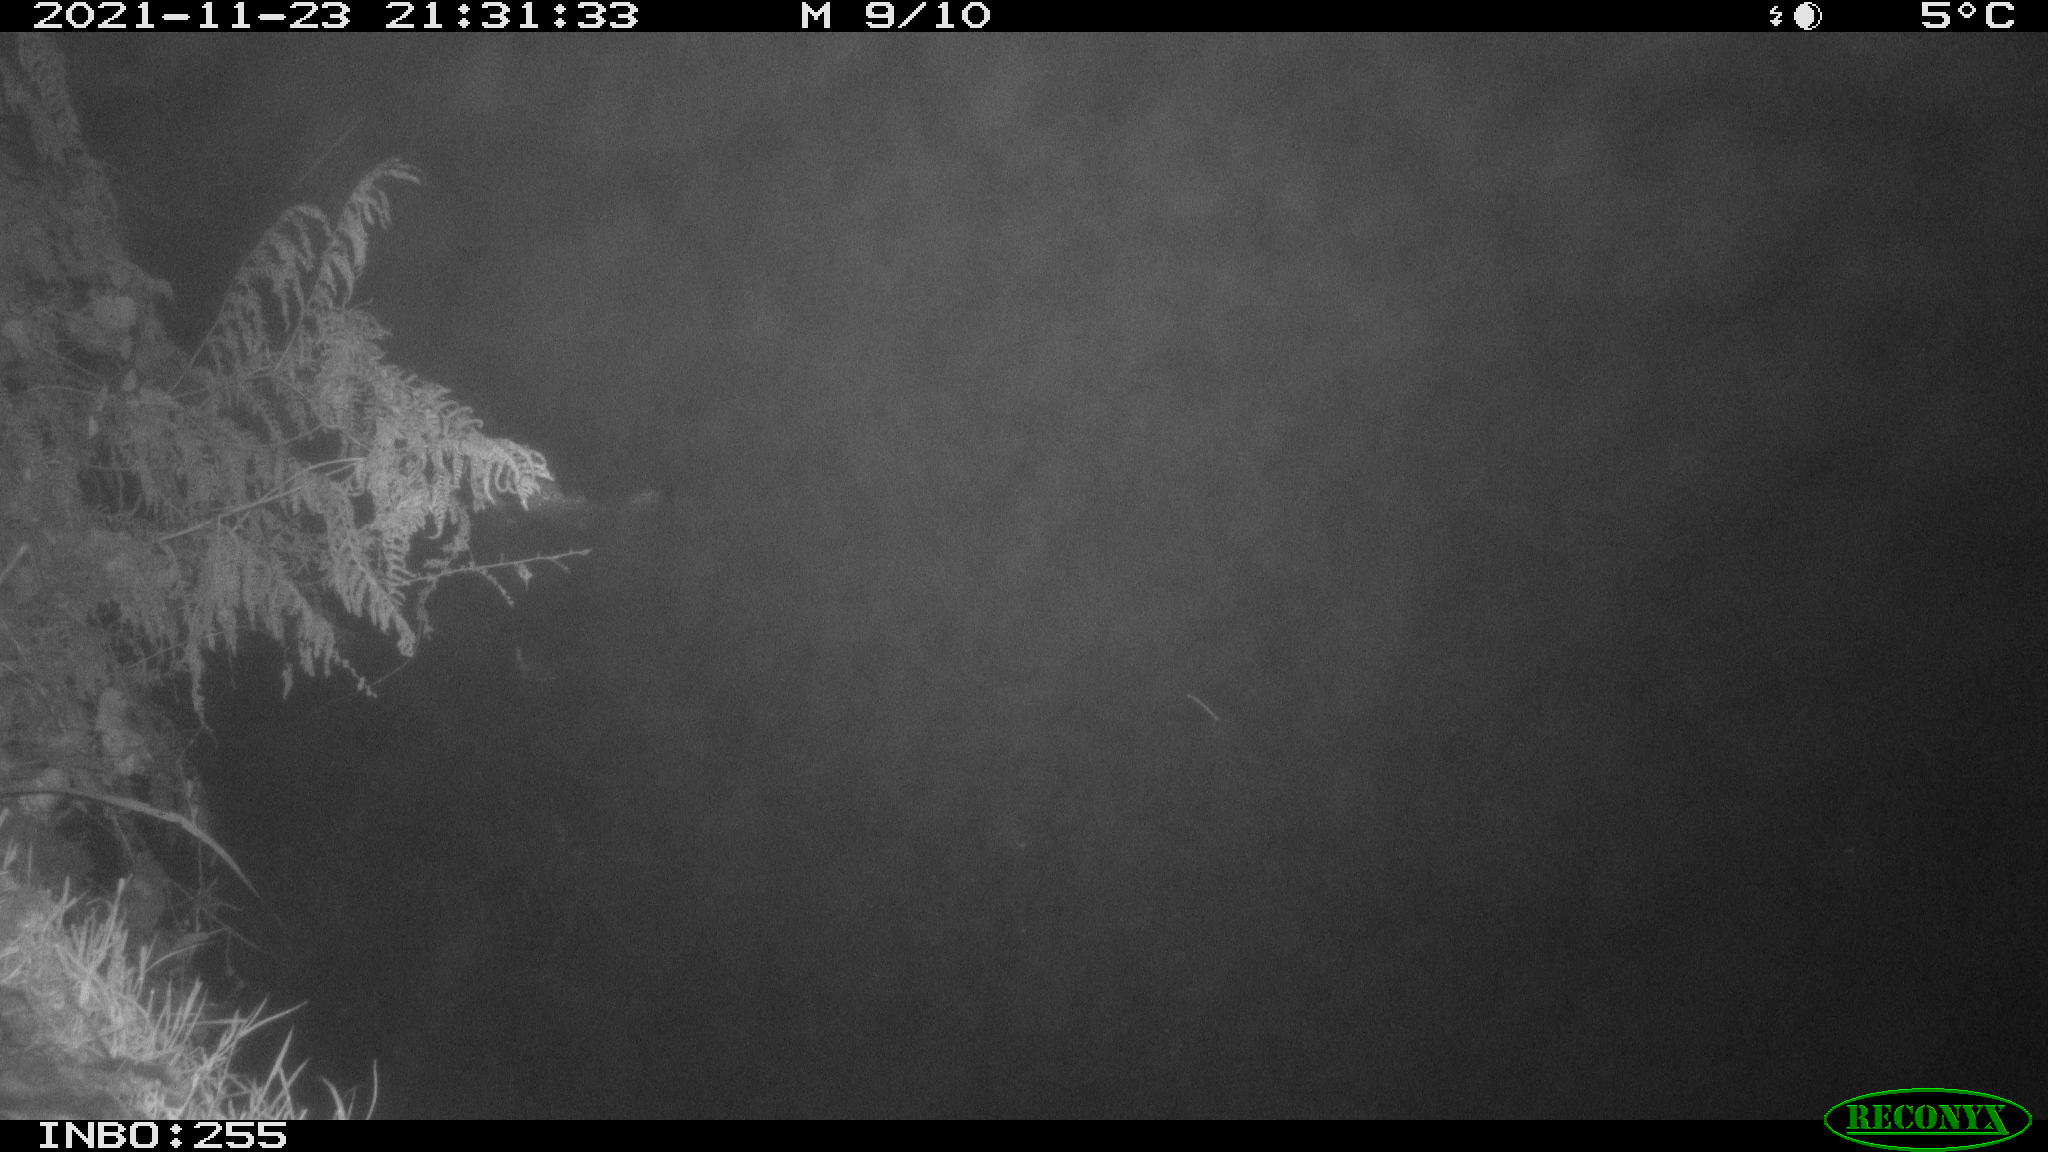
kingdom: Animalia
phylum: Chordata
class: Aves
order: Anseriformes
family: Anatidae
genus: Anas
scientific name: Anas platyrhynchos
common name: Mallard
